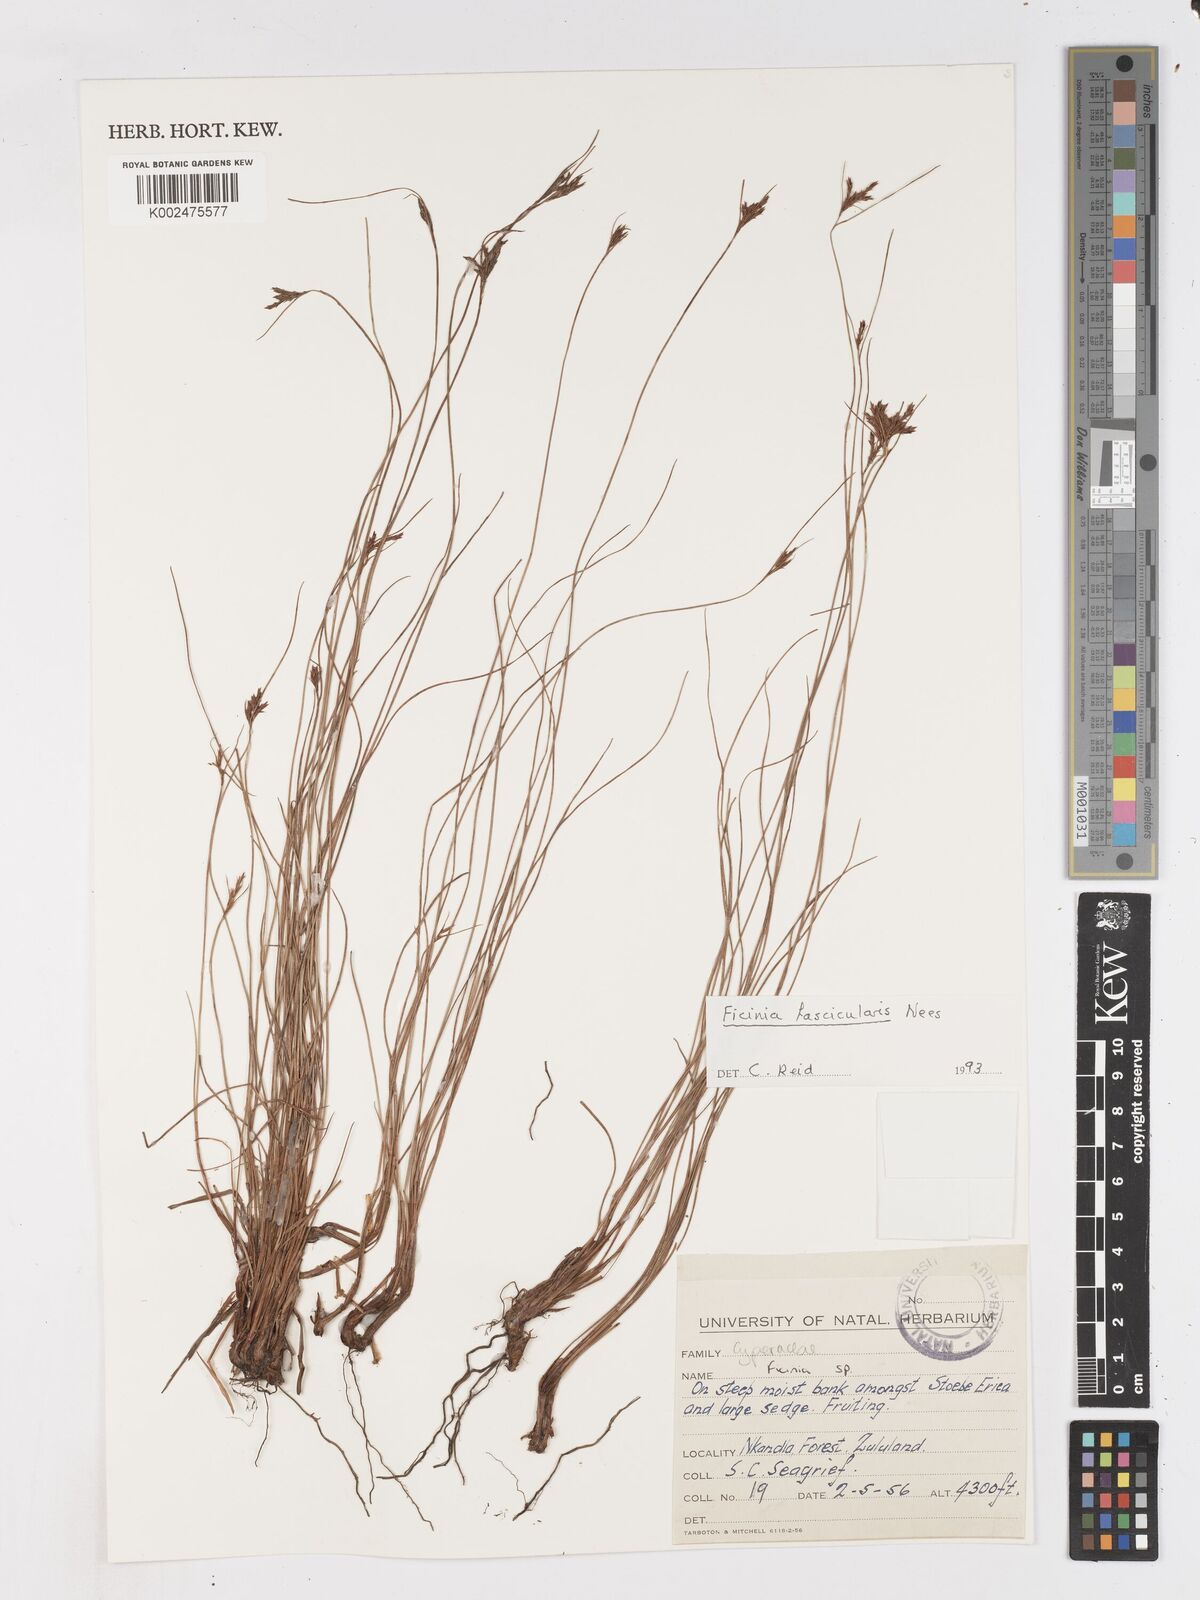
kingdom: Plantae
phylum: Tracheophyta
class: Liliopsida
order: Poales
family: Cyperaceae
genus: Ficinia
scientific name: Ficinia fascicularis
